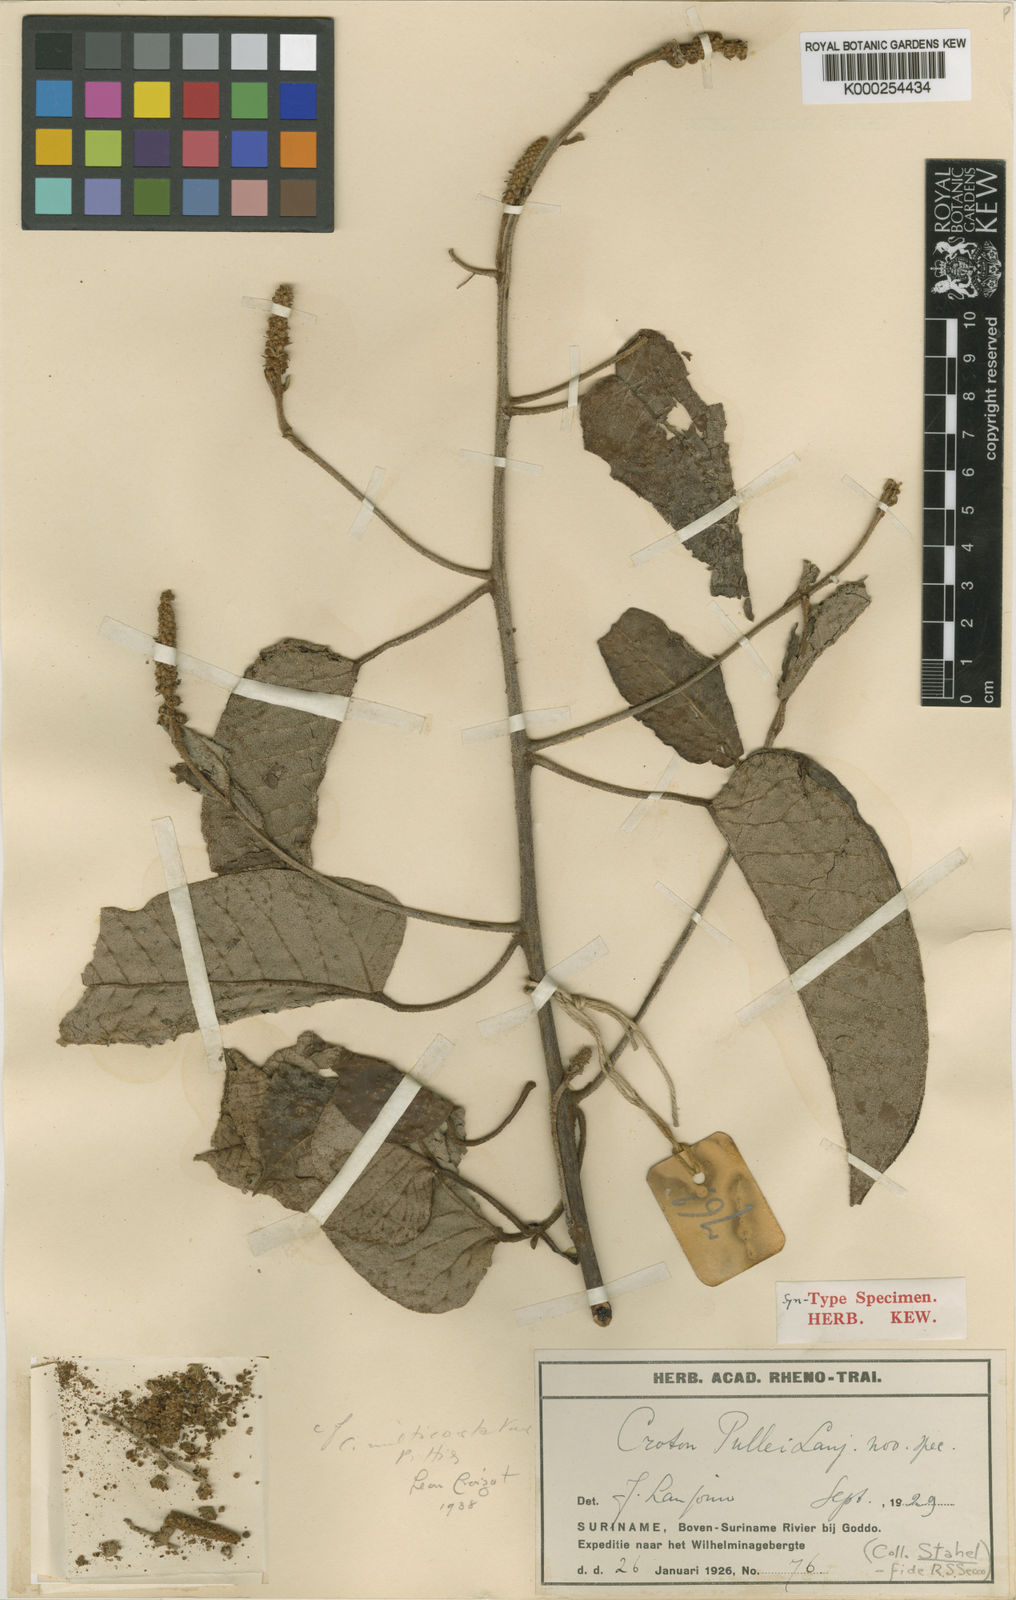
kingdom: Plantae
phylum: Tracheophyta
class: Magnoliopsida
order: Malpighiales
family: Euphorbiaceae
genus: Croton
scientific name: Croton pullei
